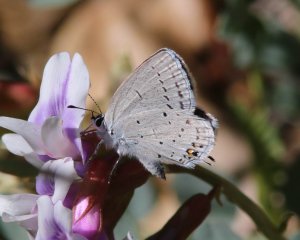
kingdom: Animalia
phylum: Arthropoda
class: Insecta
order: Lepidoptera
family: Lycaenidae
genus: Elkalyce
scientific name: Elkalyce amyntula
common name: Western Tailed-Blue
